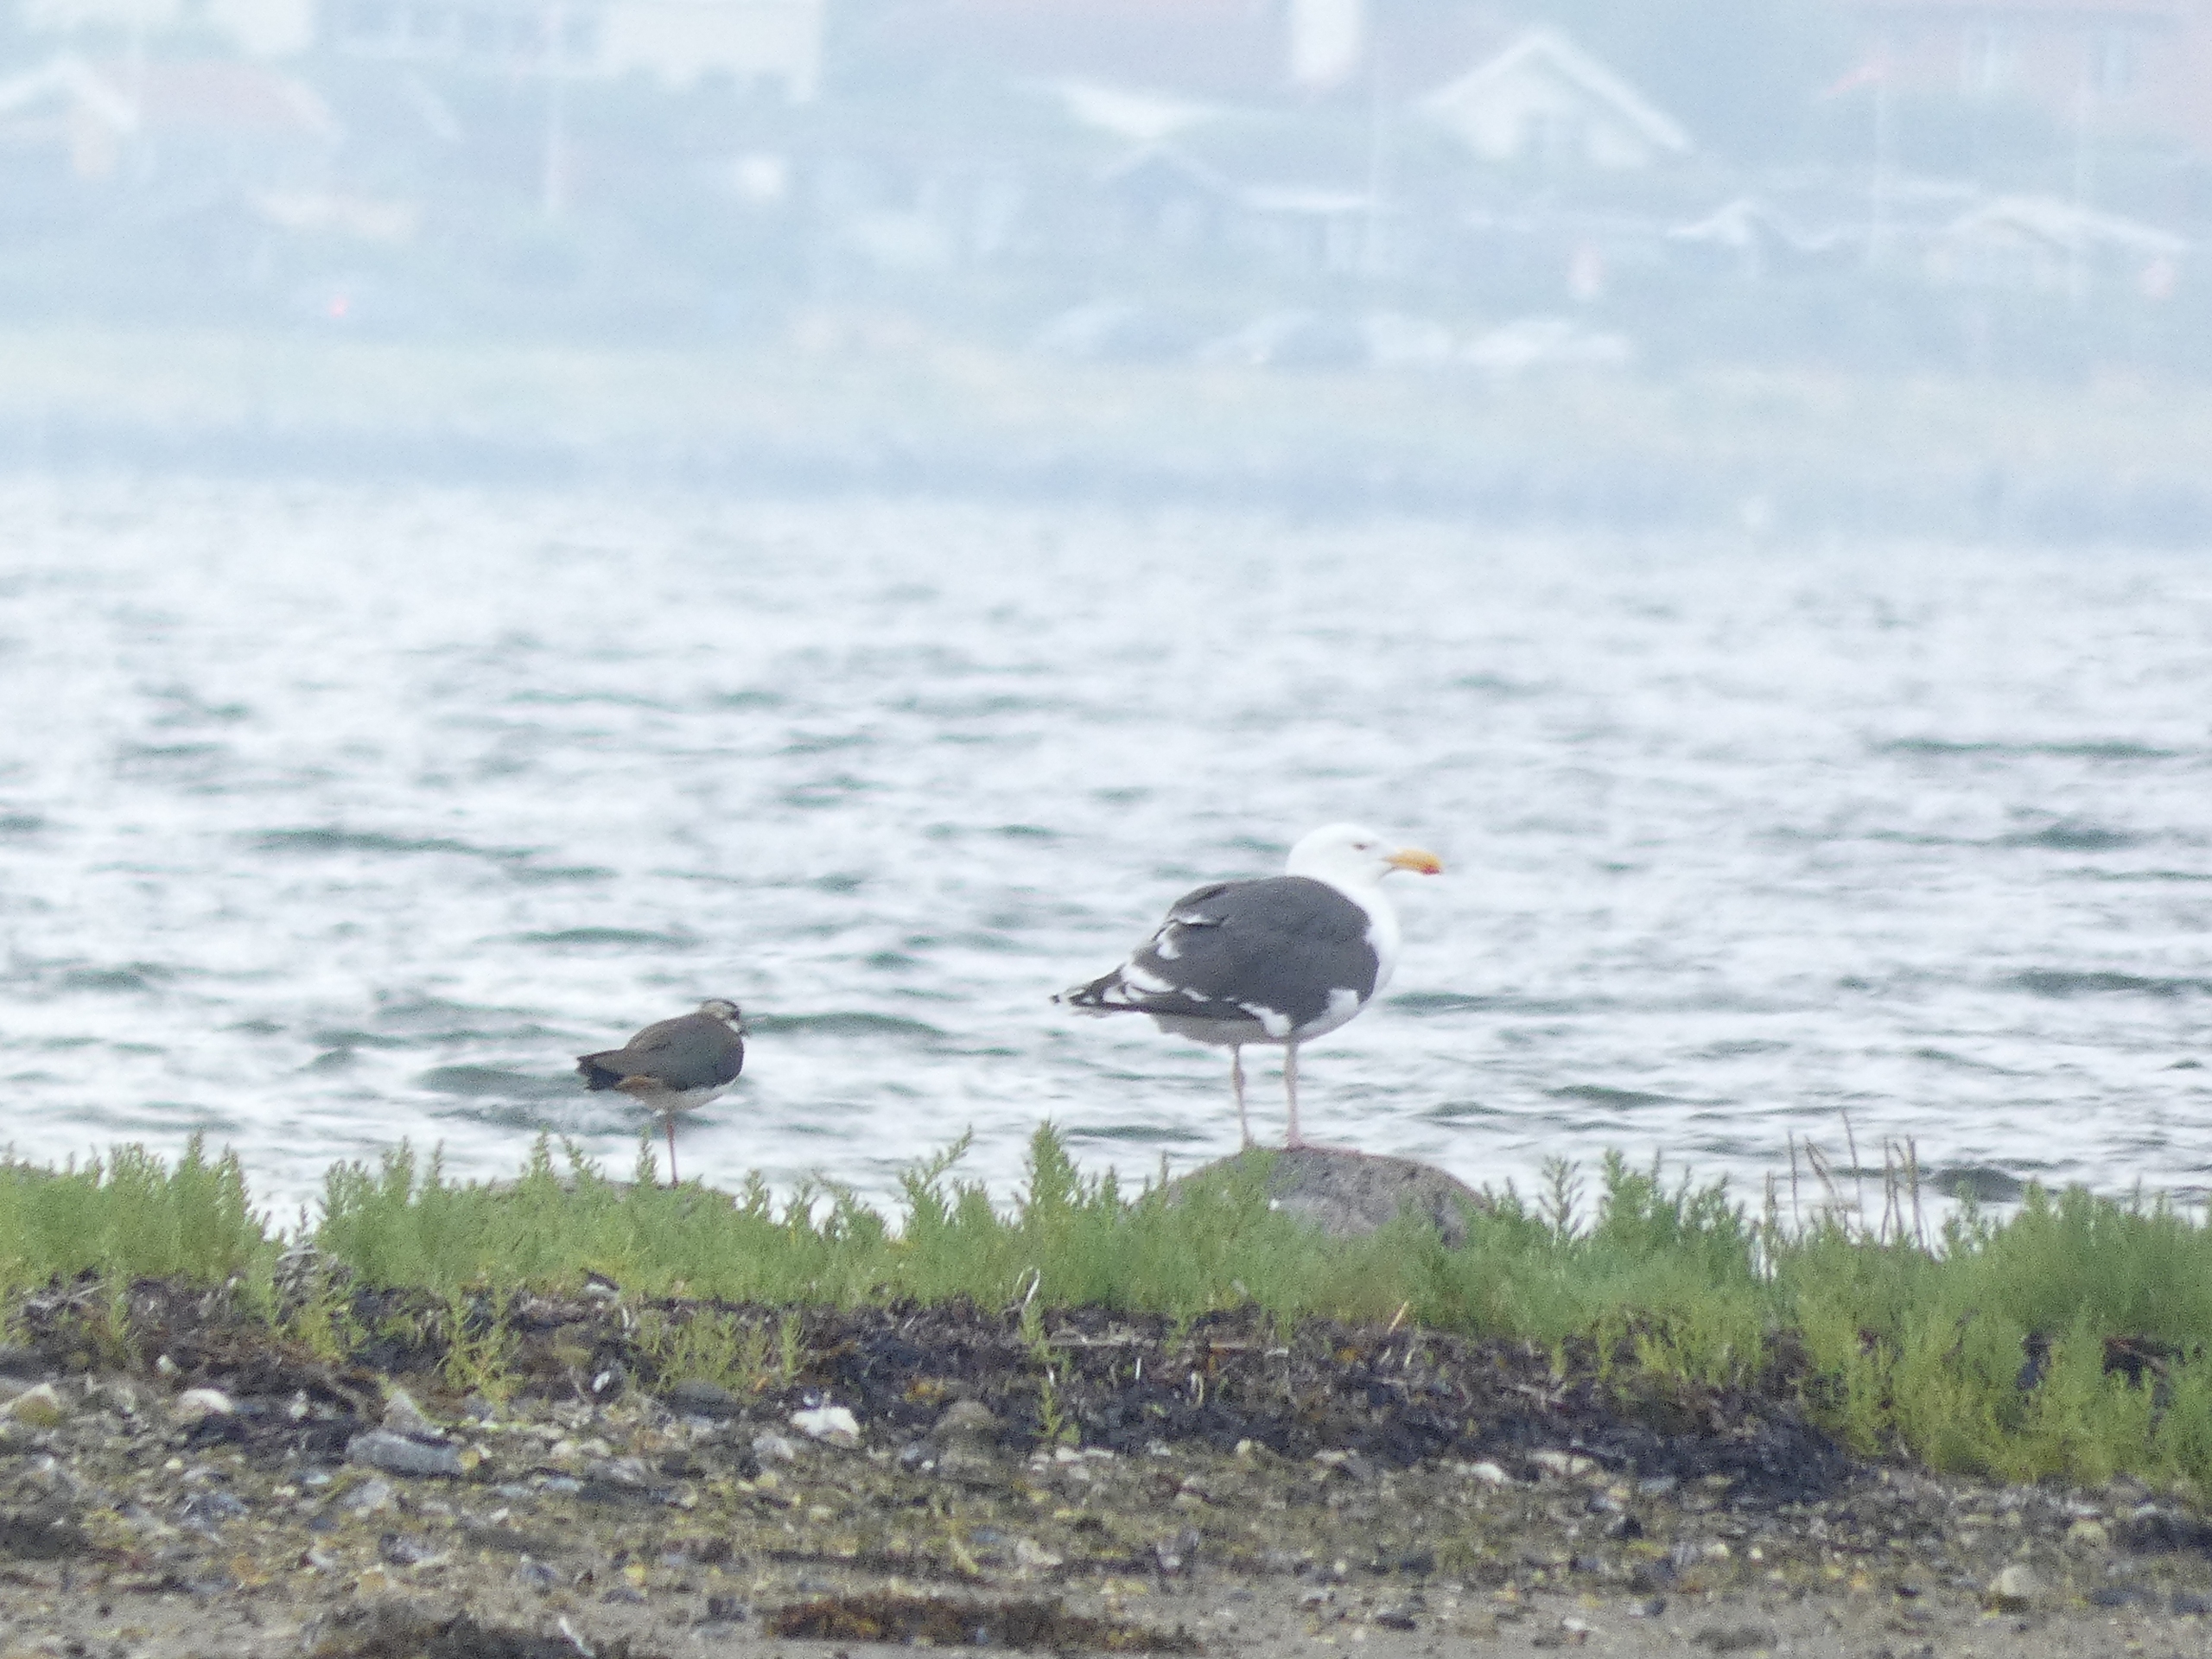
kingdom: Animalia
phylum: Chordata
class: Aves
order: Charadriiformes
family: Charadriidae
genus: Vanellus
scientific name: Vanellus vanellus
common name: Vibe
